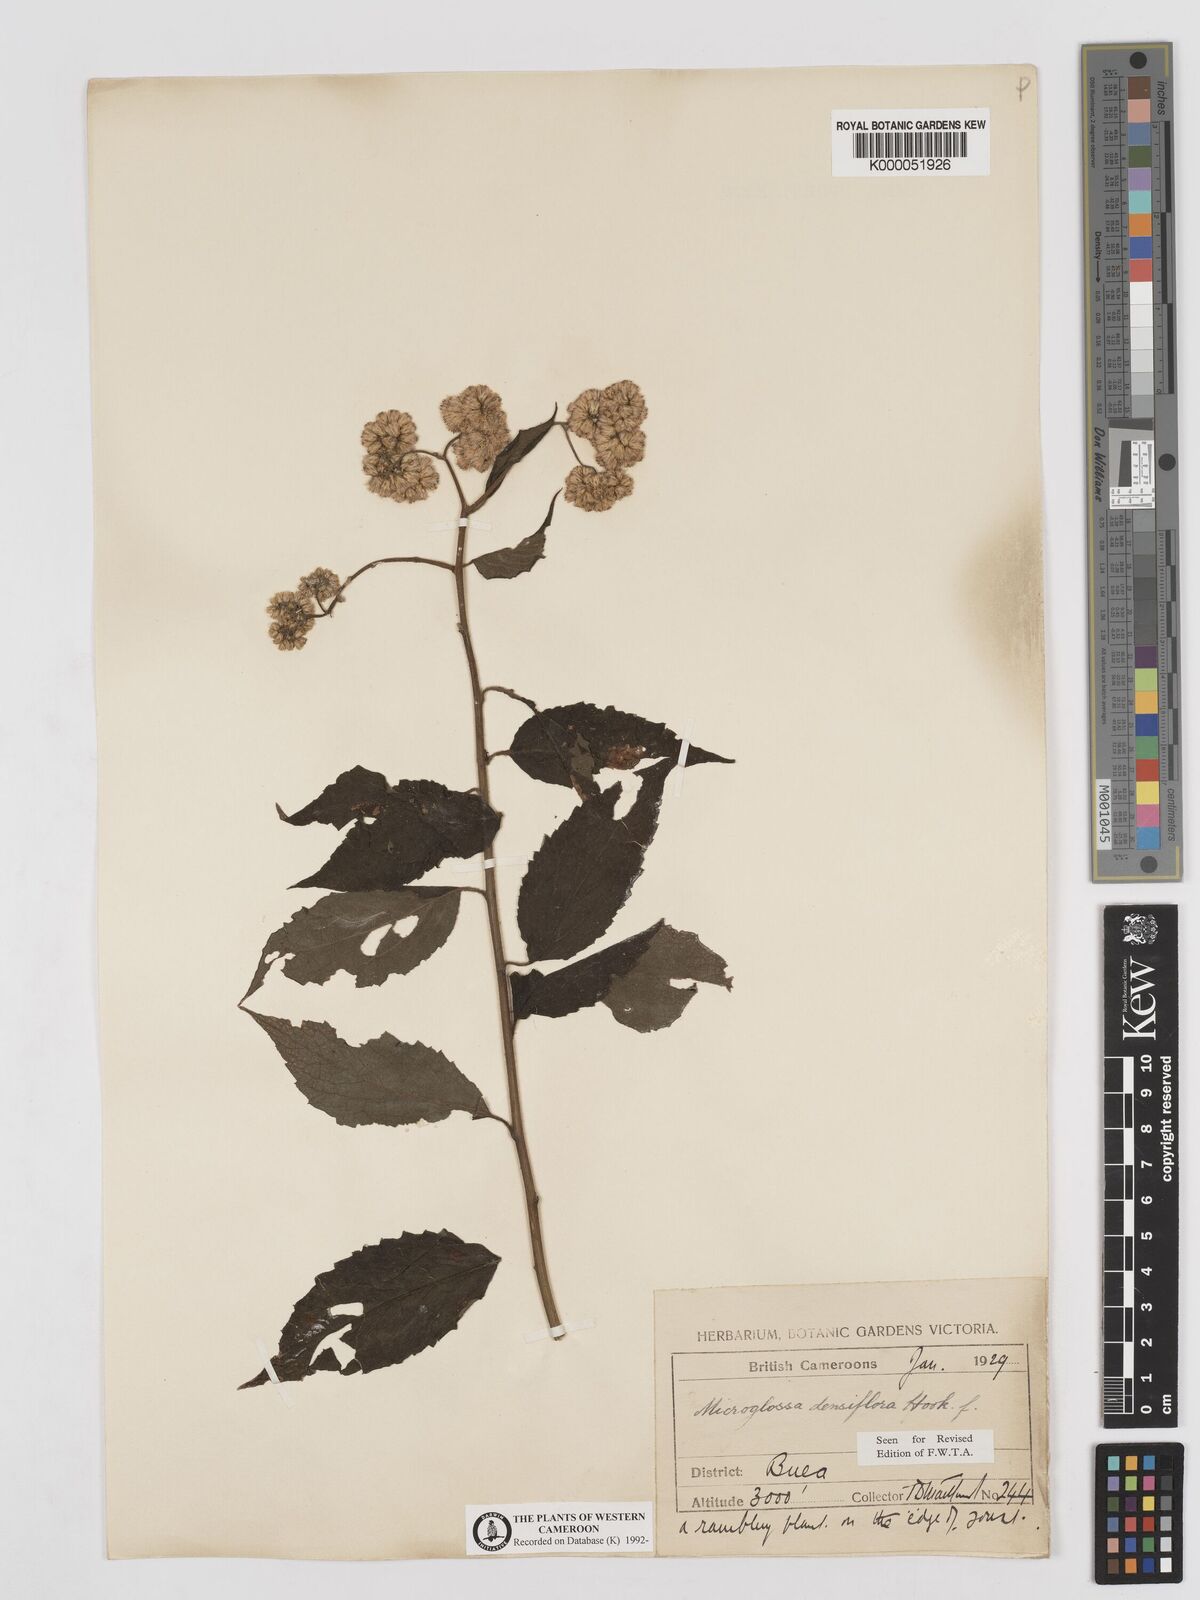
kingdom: Plantae
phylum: Tracheophyta
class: Magnoliopsida
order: Asterales
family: Asteraceae
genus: Microglossa
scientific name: Microglossa densiflora
